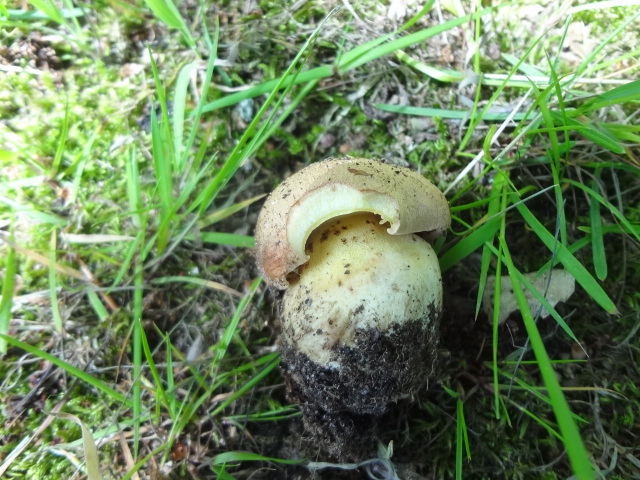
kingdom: Fungi
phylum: Basidiomycota
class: Agaricomycetes
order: Boletales
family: Boletaceae
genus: Butyriboletus
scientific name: Butyriboletus appendiculatus
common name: tenstokket rørhat
